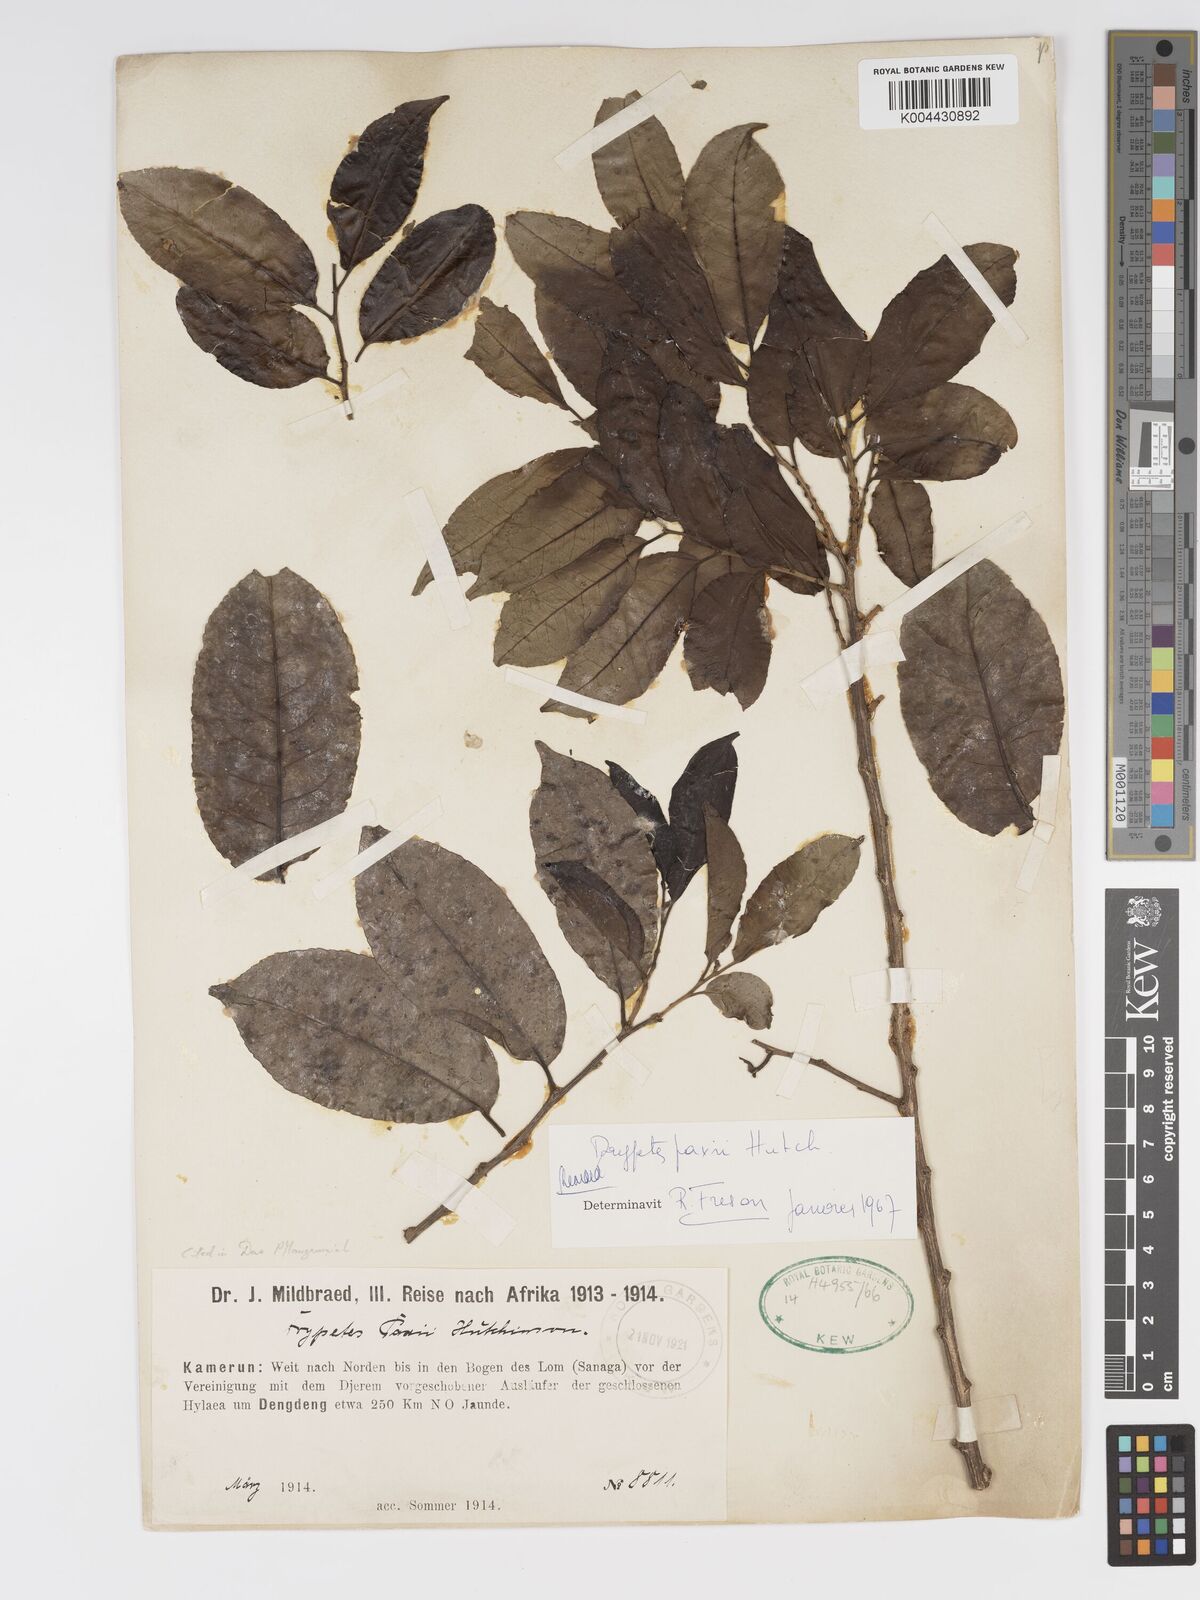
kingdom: Plantae
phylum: Tracheophyta
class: Magnoliopsida
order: Malpighiales
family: Putranjivaceae
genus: Drypetes
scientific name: Drypetes paxii
